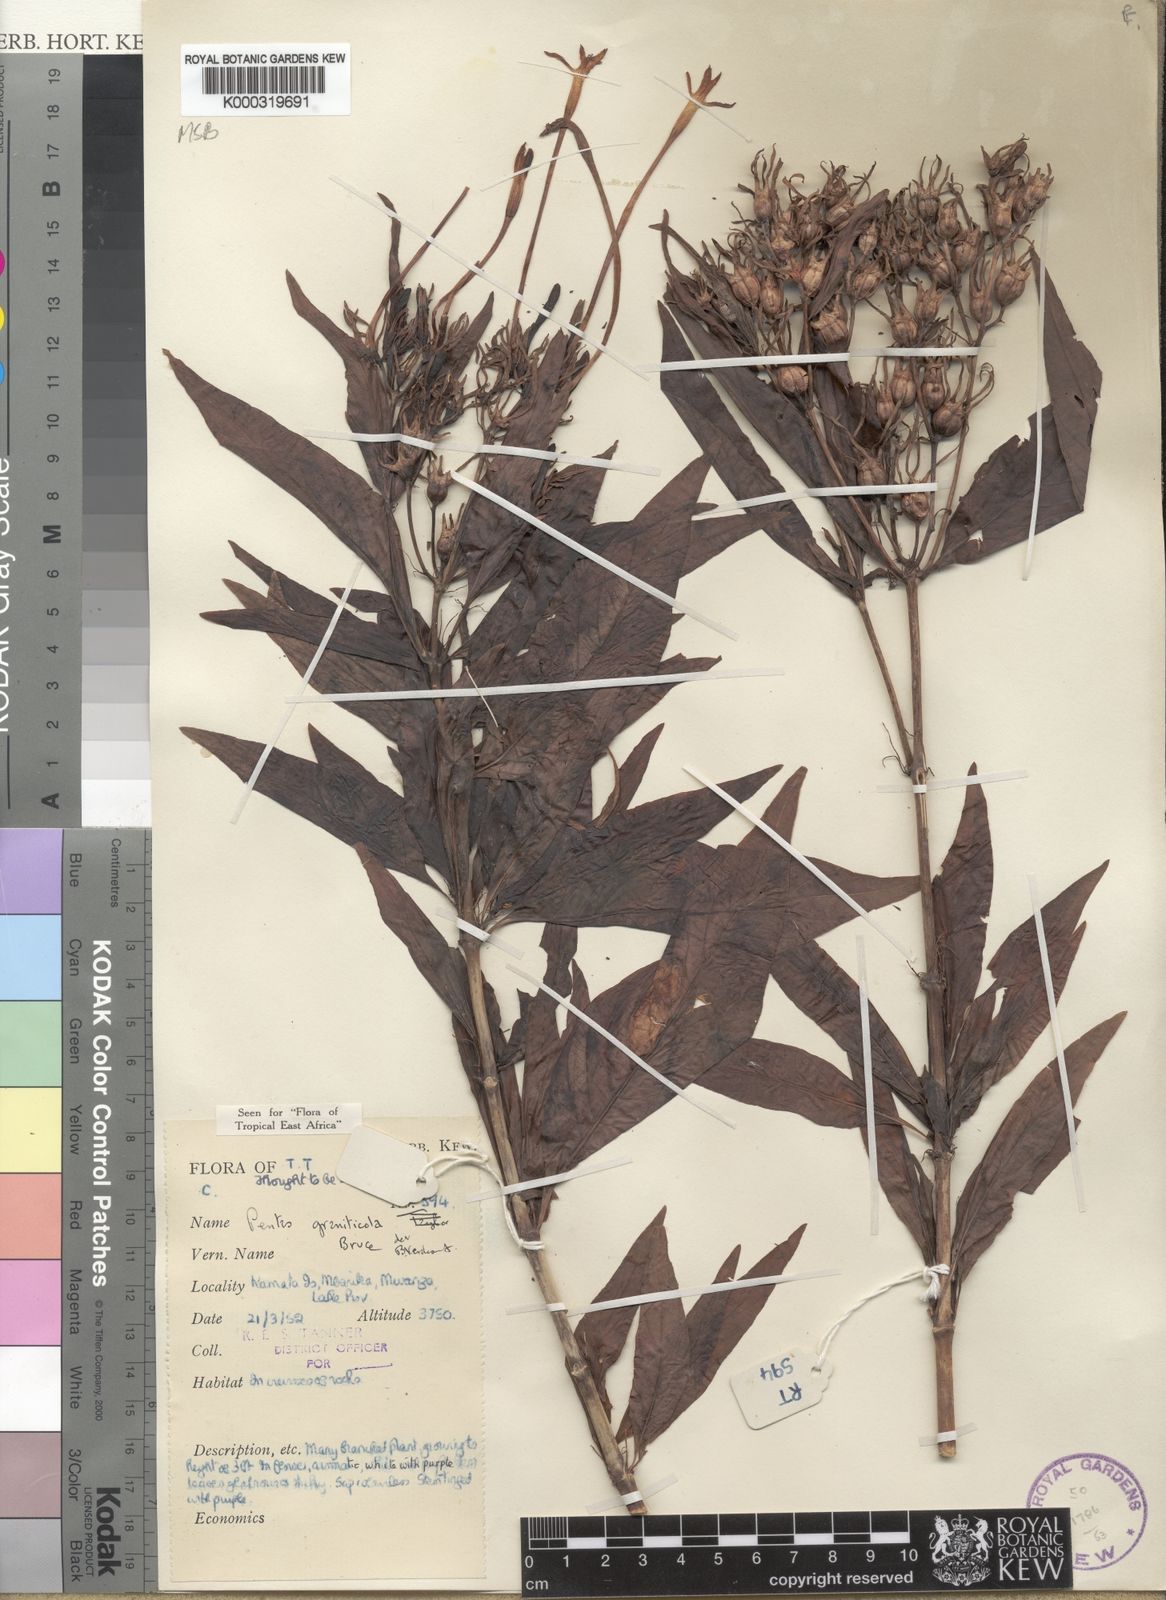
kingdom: Plantae
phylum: Tracheophyta
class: Magnoliopsida
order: Gentianales
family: Rubiaceae
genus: Chamaepentas
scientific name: Chamaepentas graniticola
